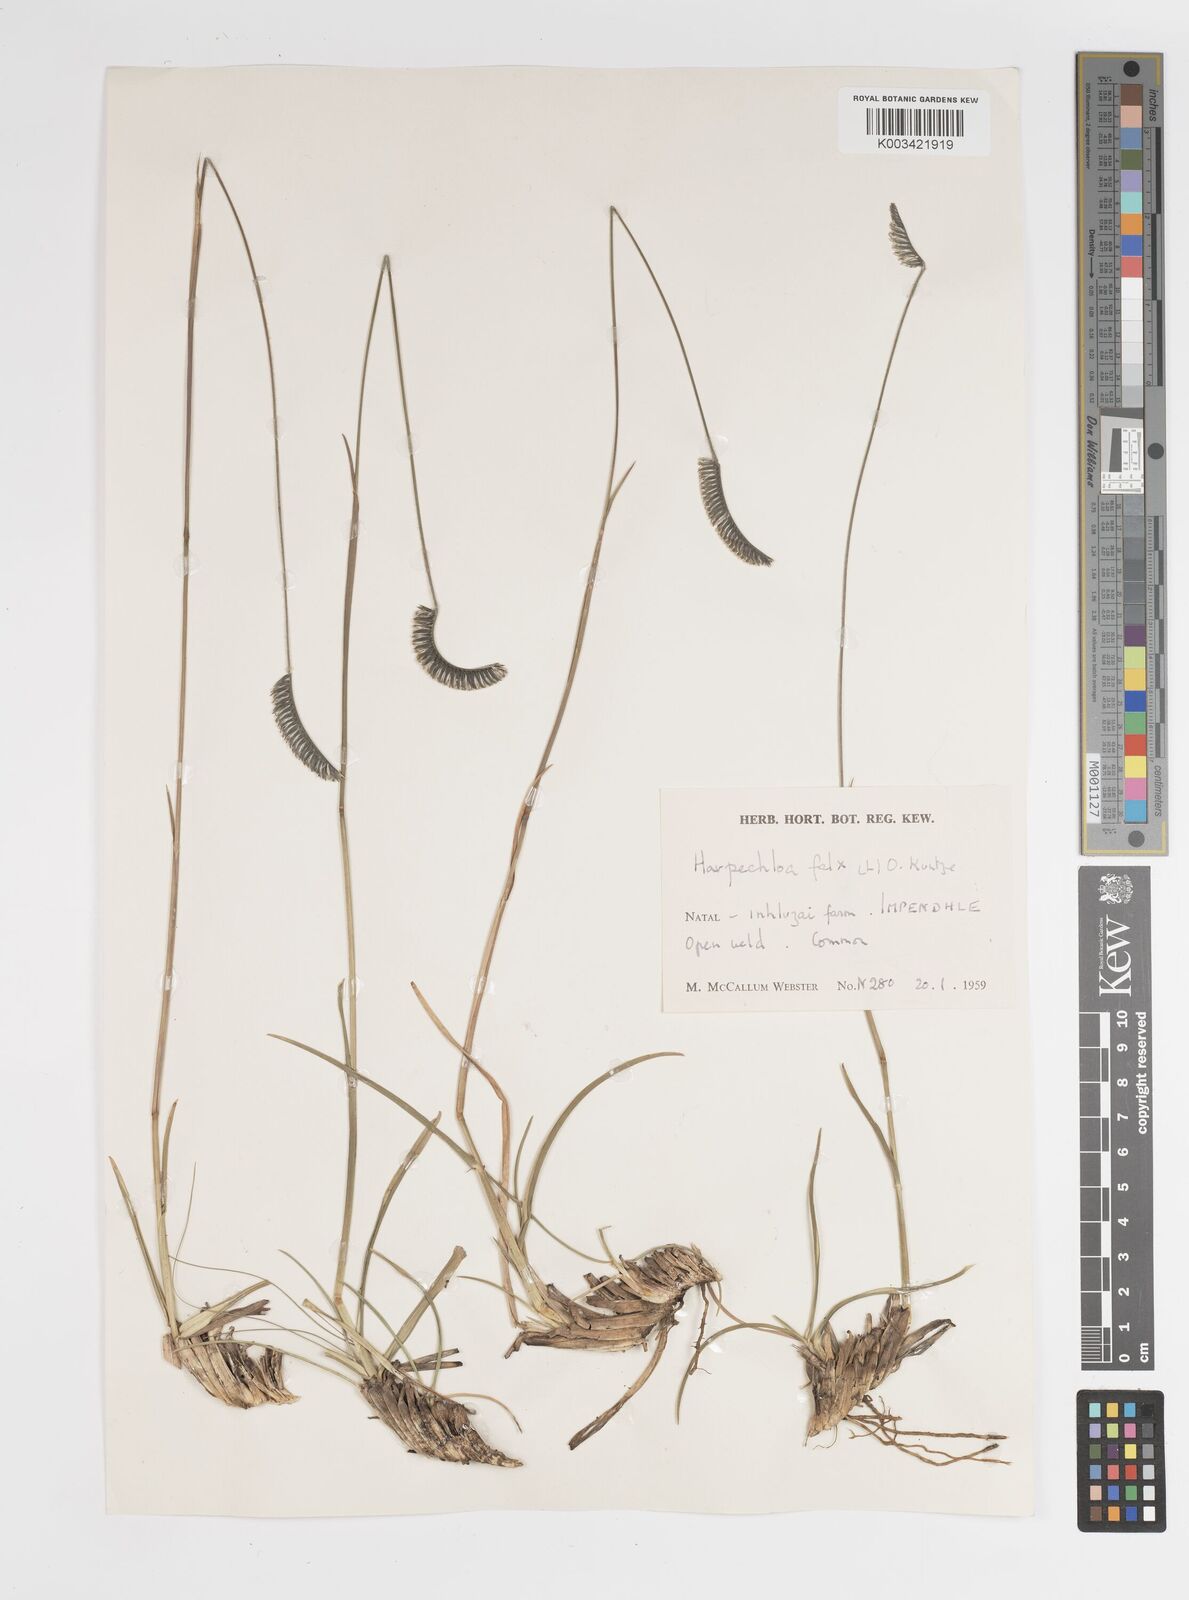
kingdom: Plantae
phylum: Tracheophyta
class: Liliopsida
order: Poales
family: Poaceae
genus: Harpochloa
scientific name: Harpochloa falx
